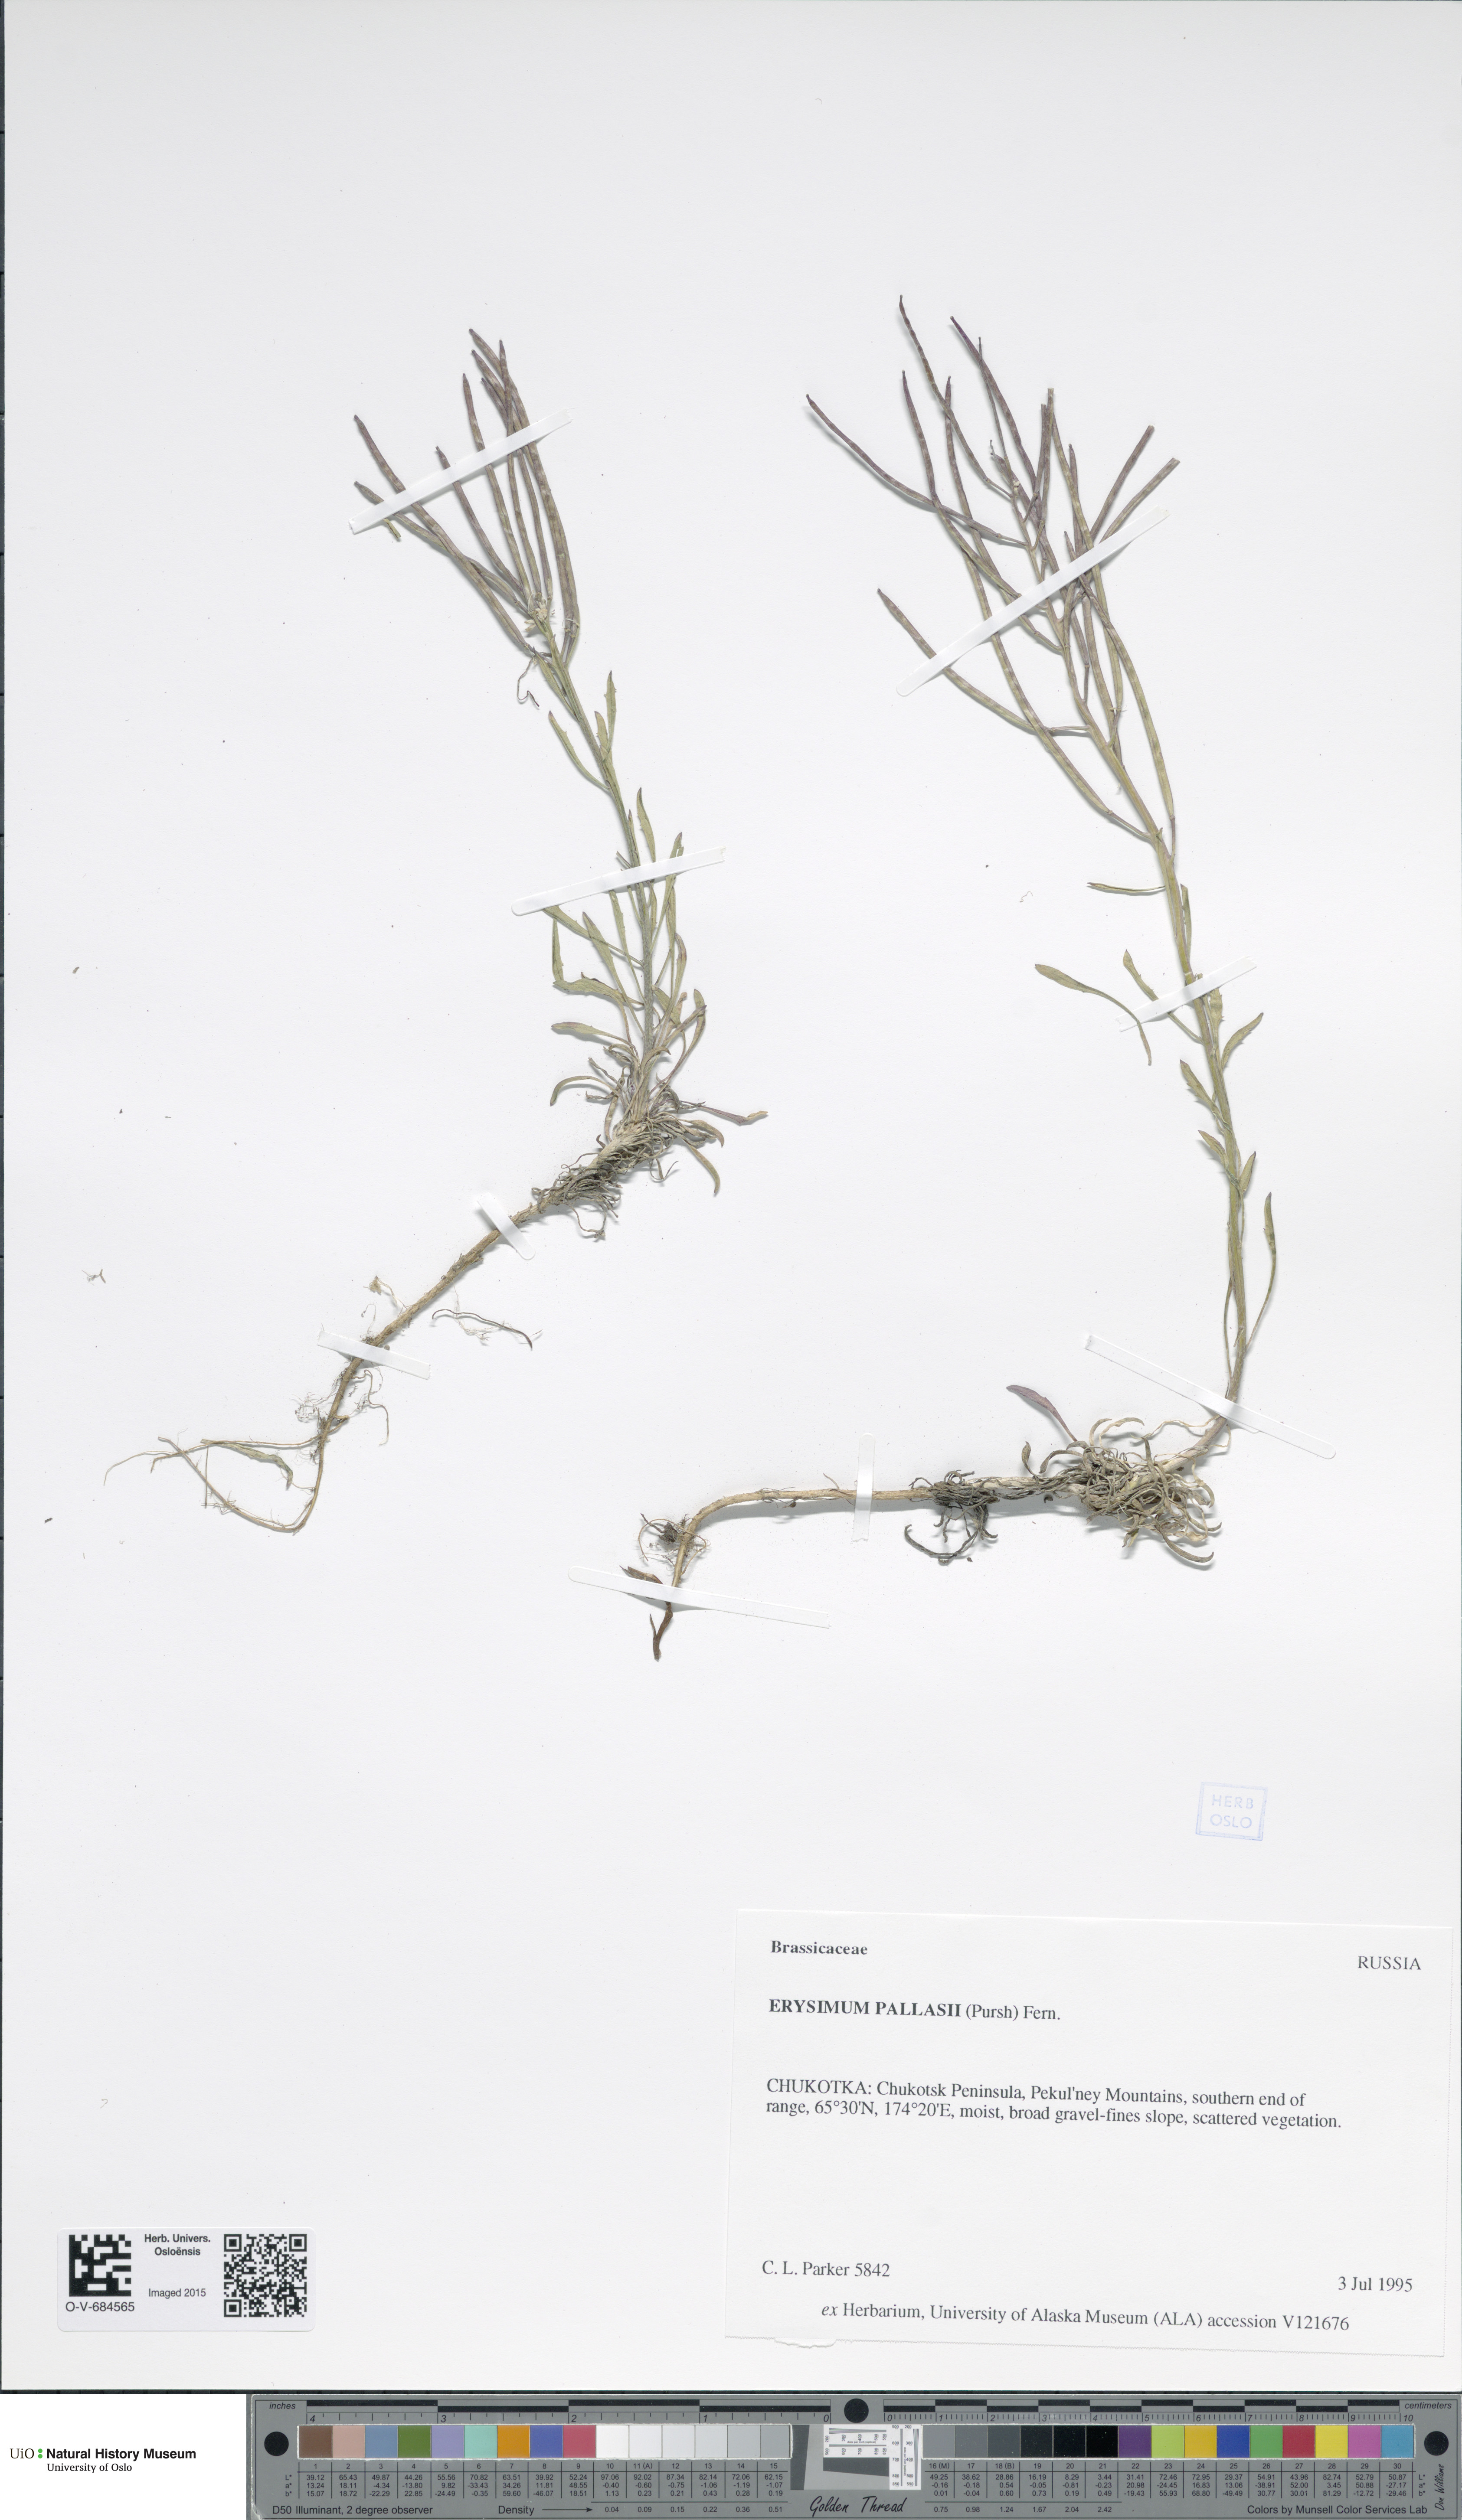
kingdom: Plantae
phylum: Tracheophyta
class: Magnoliopsida
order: Brassicales
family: Brassicaceae
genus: Erysimum
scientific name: Erysimum pallasii
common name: Pallas' wallflower
